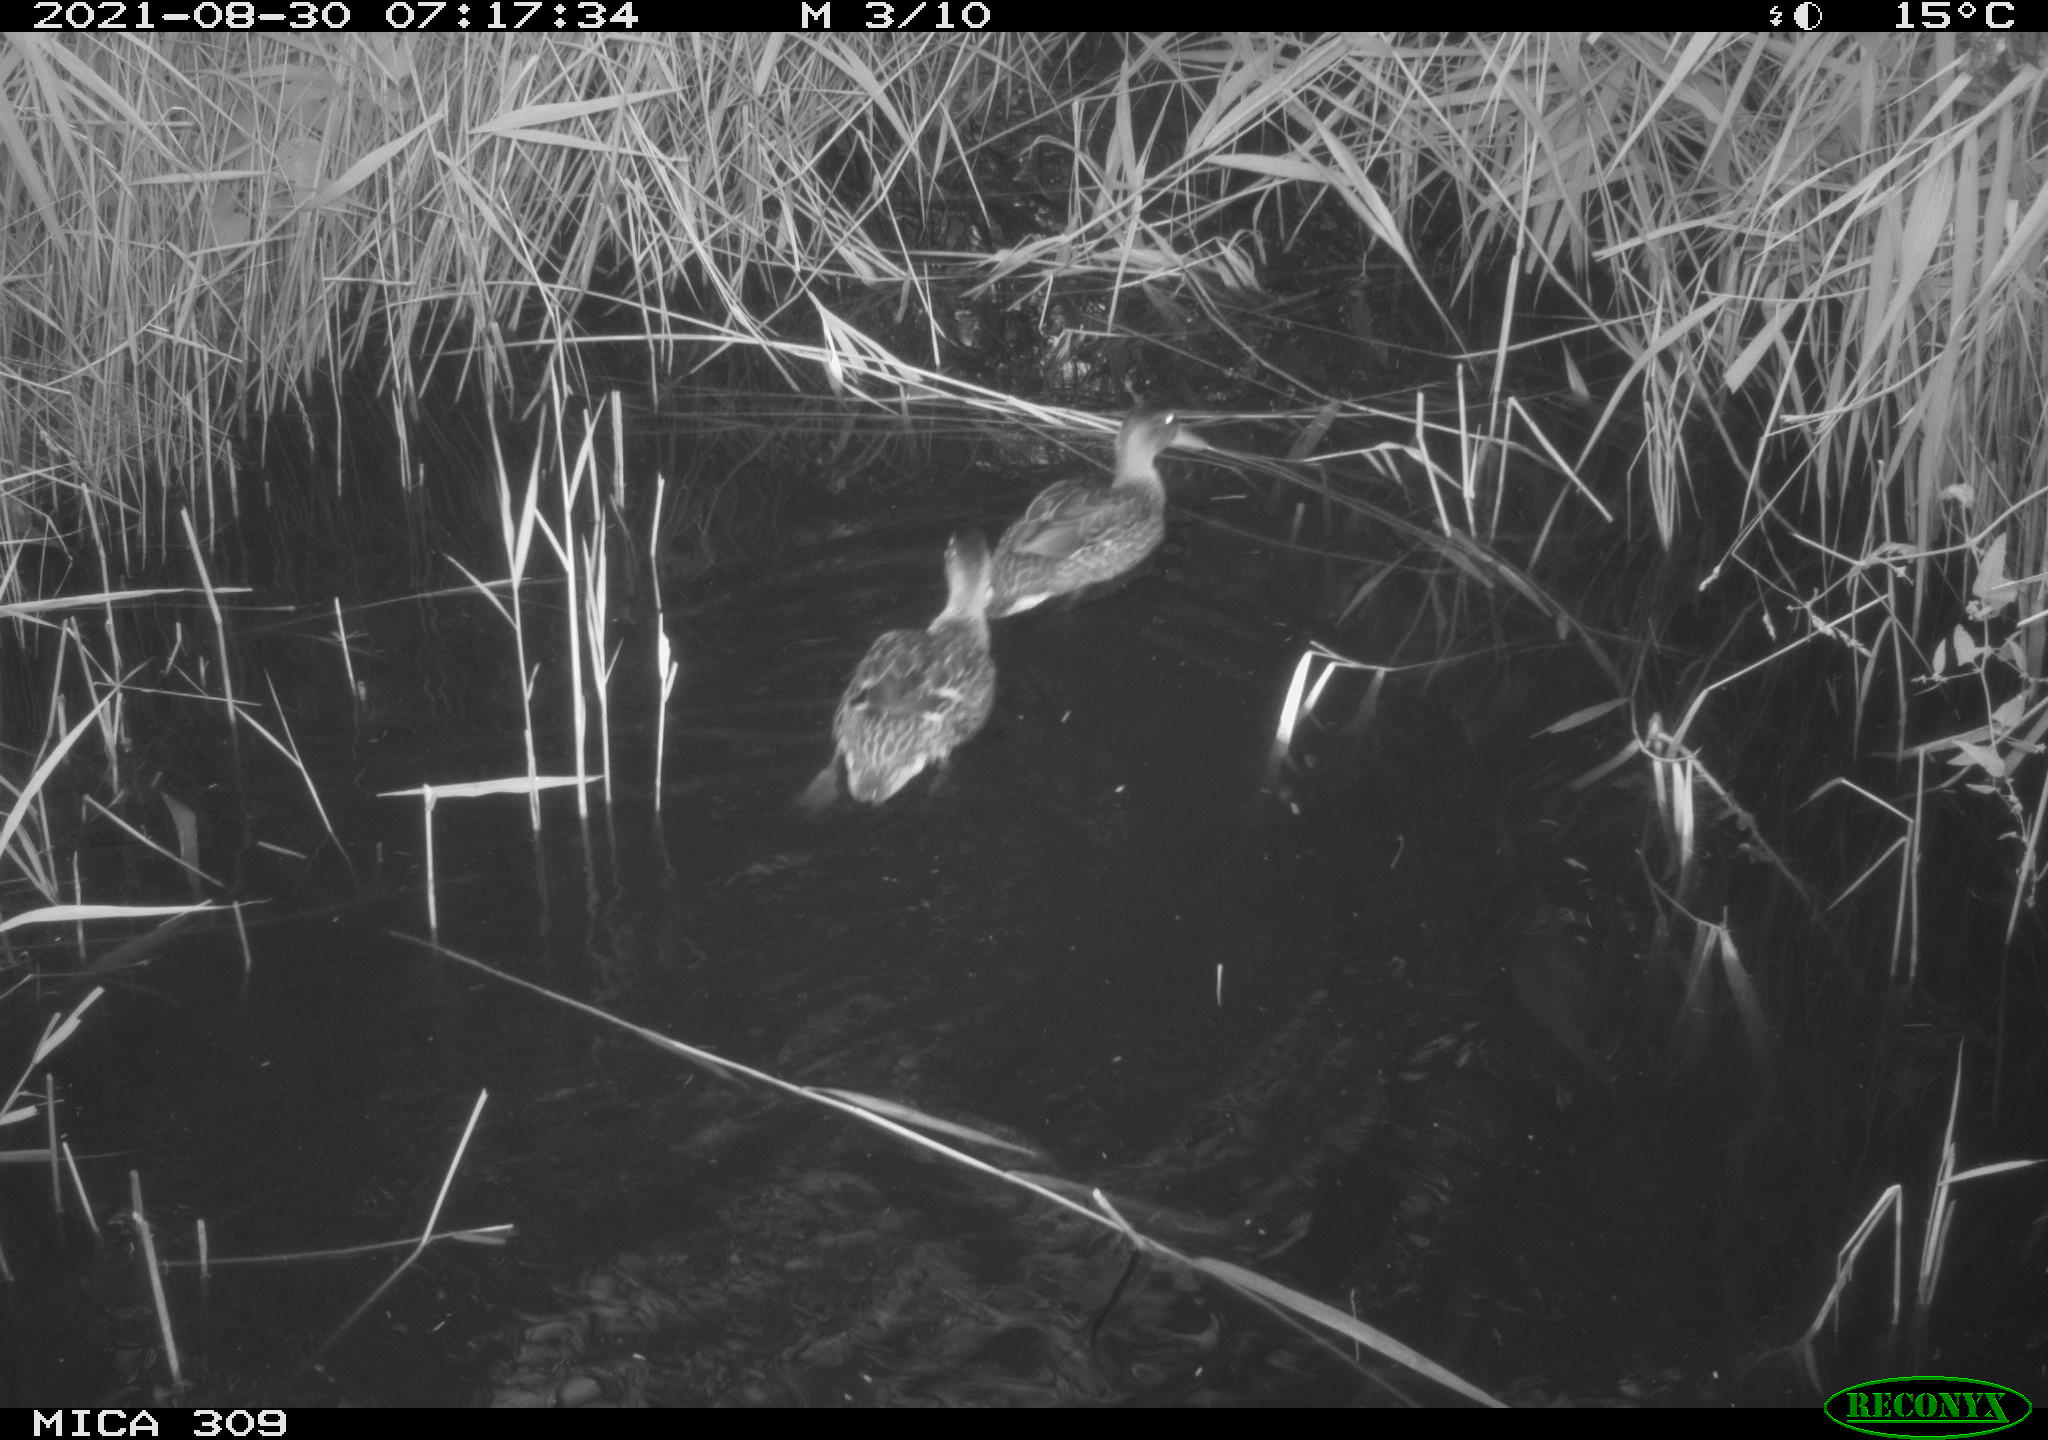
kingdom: Animalia
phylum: Chordata
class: Aves
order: Anseriformes
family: Anatidae
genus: Anas
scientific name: Anas platyrhynchos
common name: Mallard
